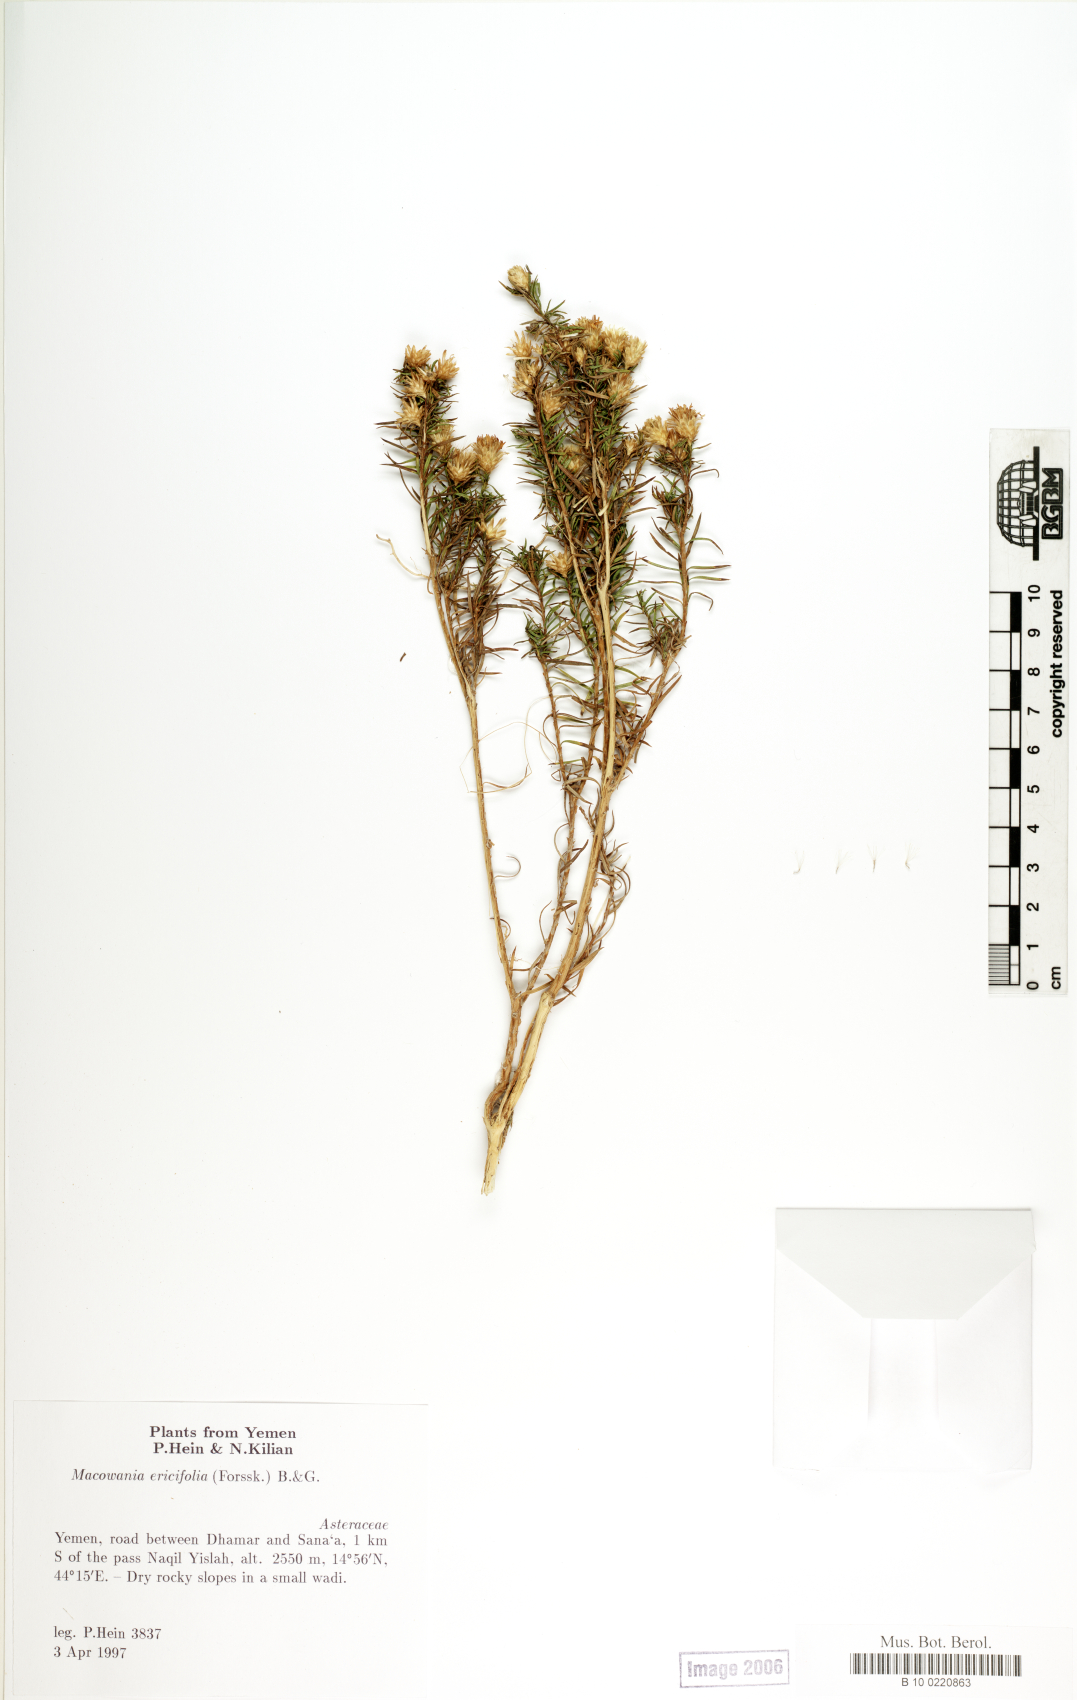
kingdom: Plantae
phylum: Tracheophyta
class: Magnoliopsida
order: Asterales
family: Asteraceae
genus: Arrowsmithia
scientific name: Arrowsmithia ericifolia
